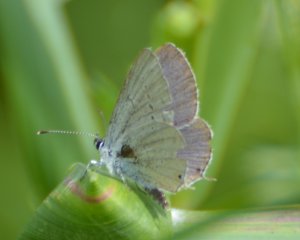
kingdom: Animalia
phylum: Arthropoda
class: Insecta
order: Lepidoptera
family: Lycaenidae
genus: Elkalyce
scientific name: Elkalyce amyntula
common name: Western Tailed-Blue
